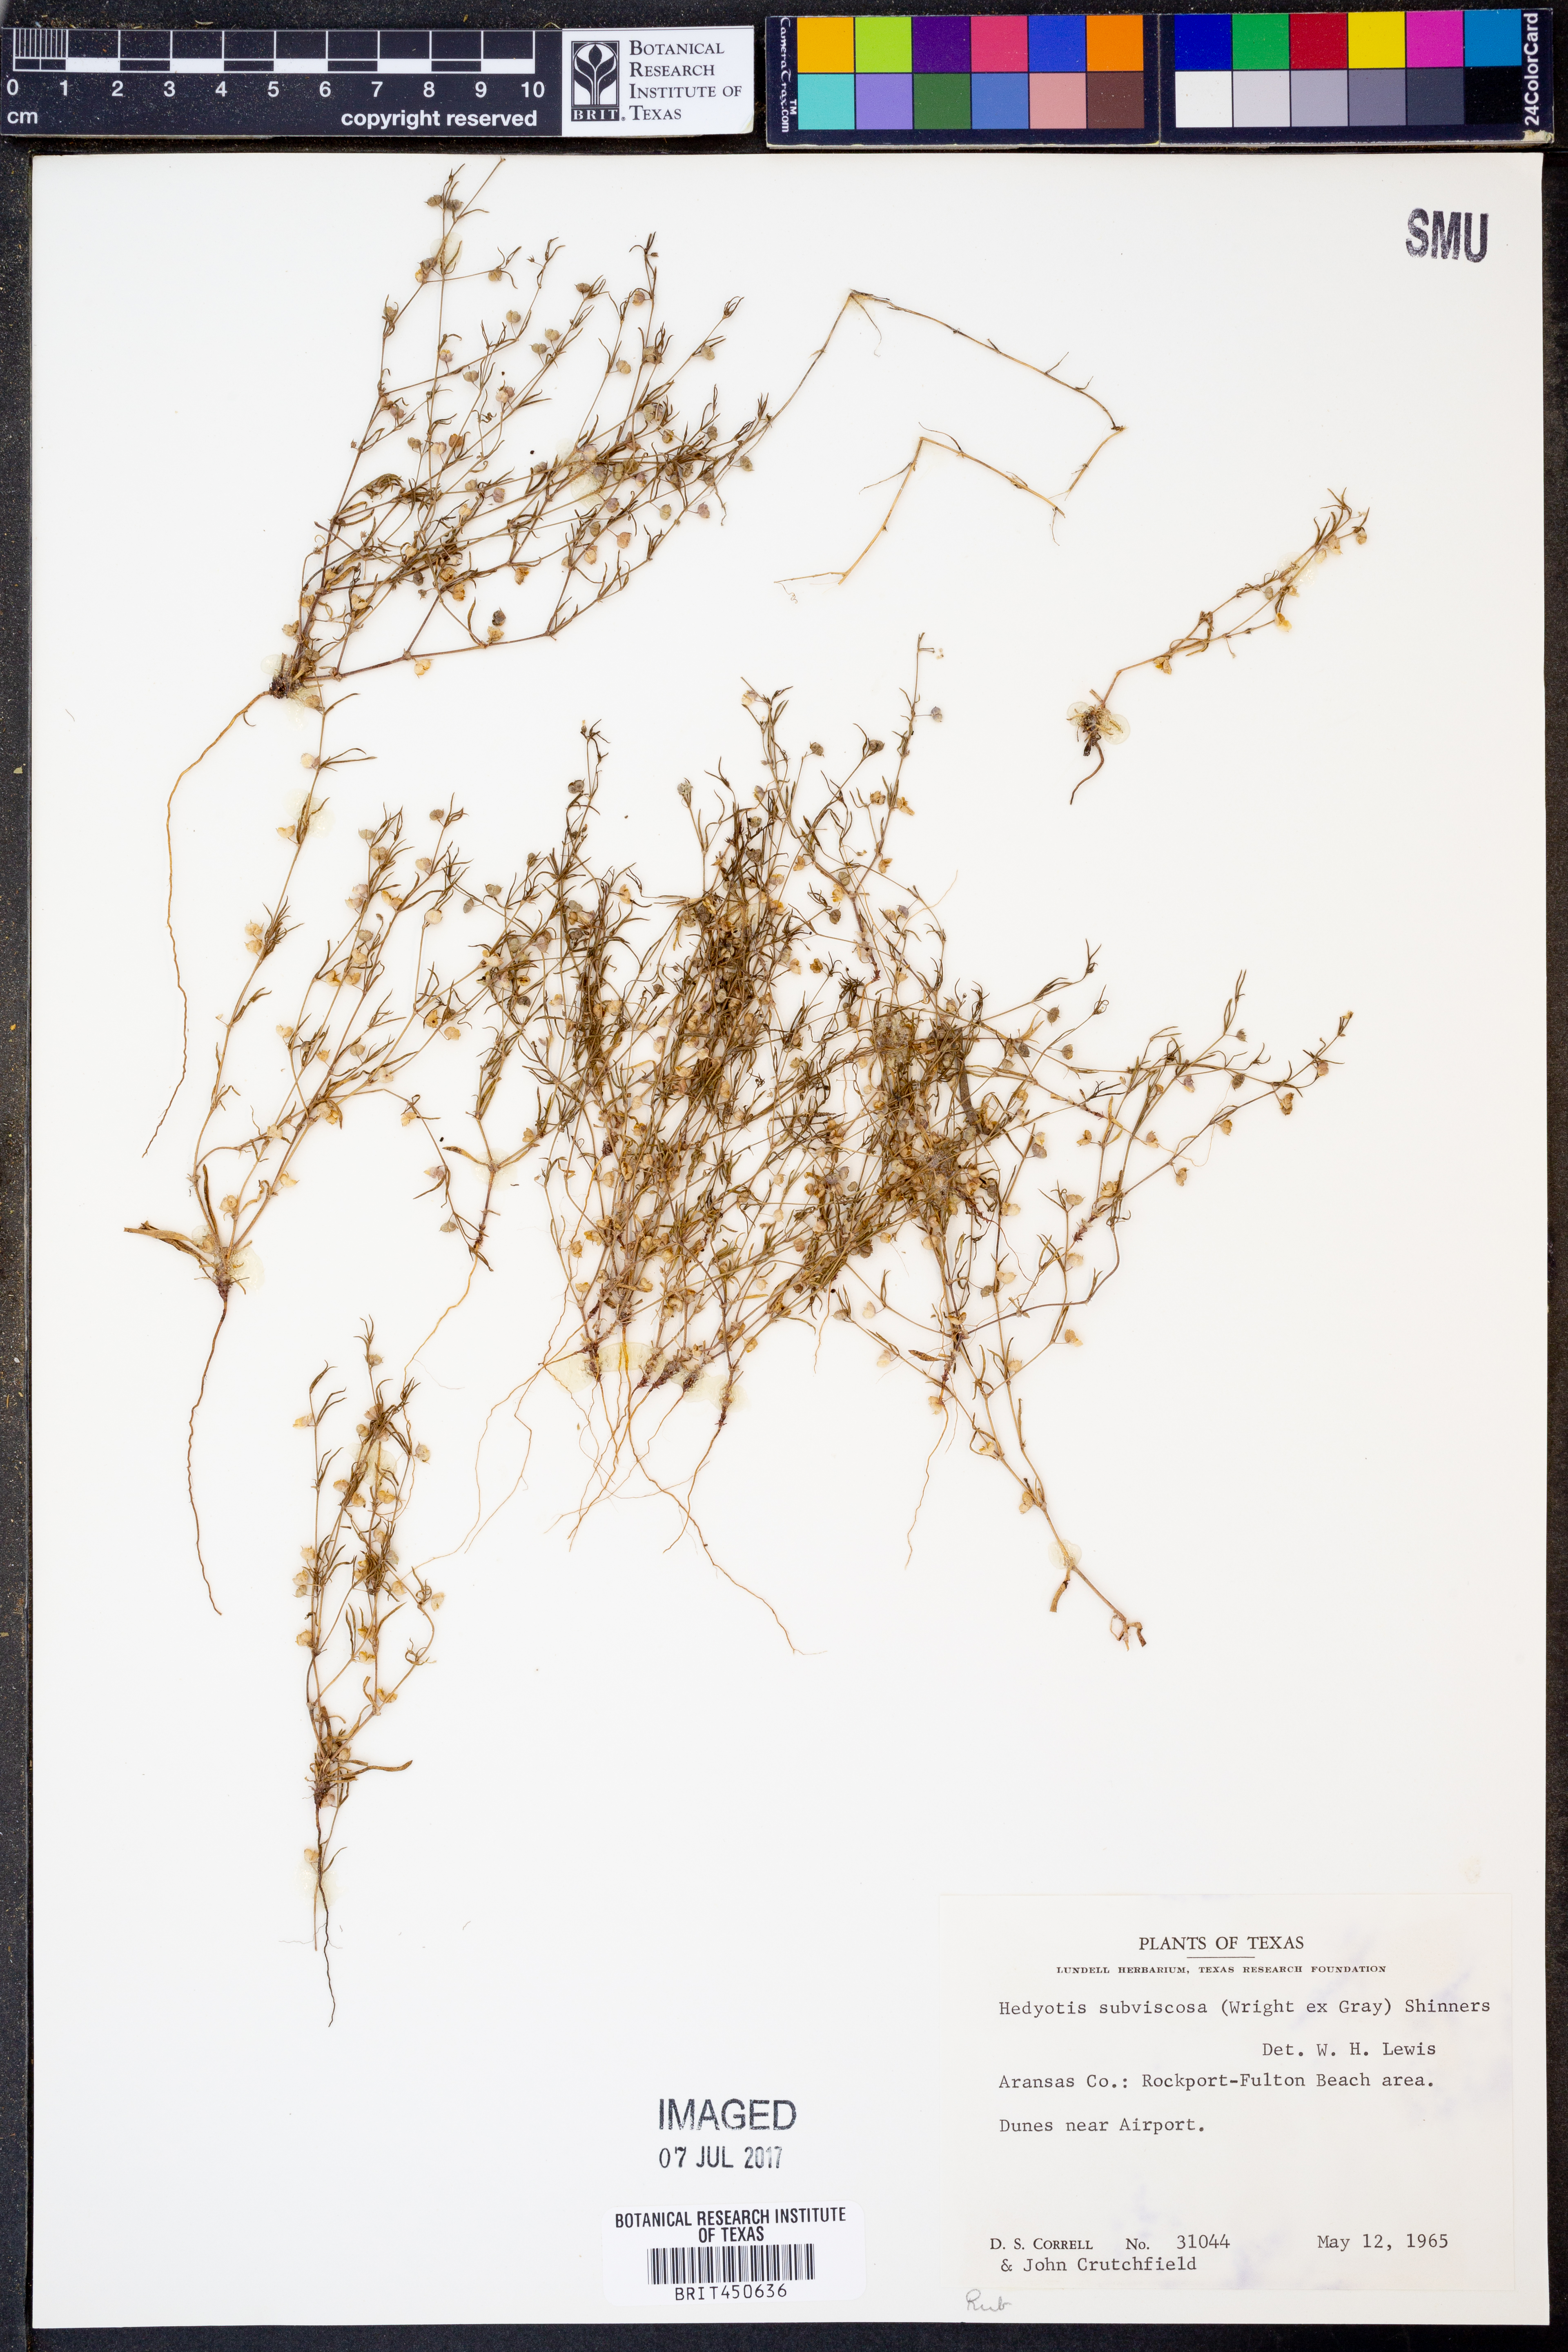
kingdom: Plantae
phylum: Tracheophyta
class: Magnoliopsida
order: Gentianales
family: Rubiaceae
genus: Houstonia
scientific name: Houstonia subviscosa
